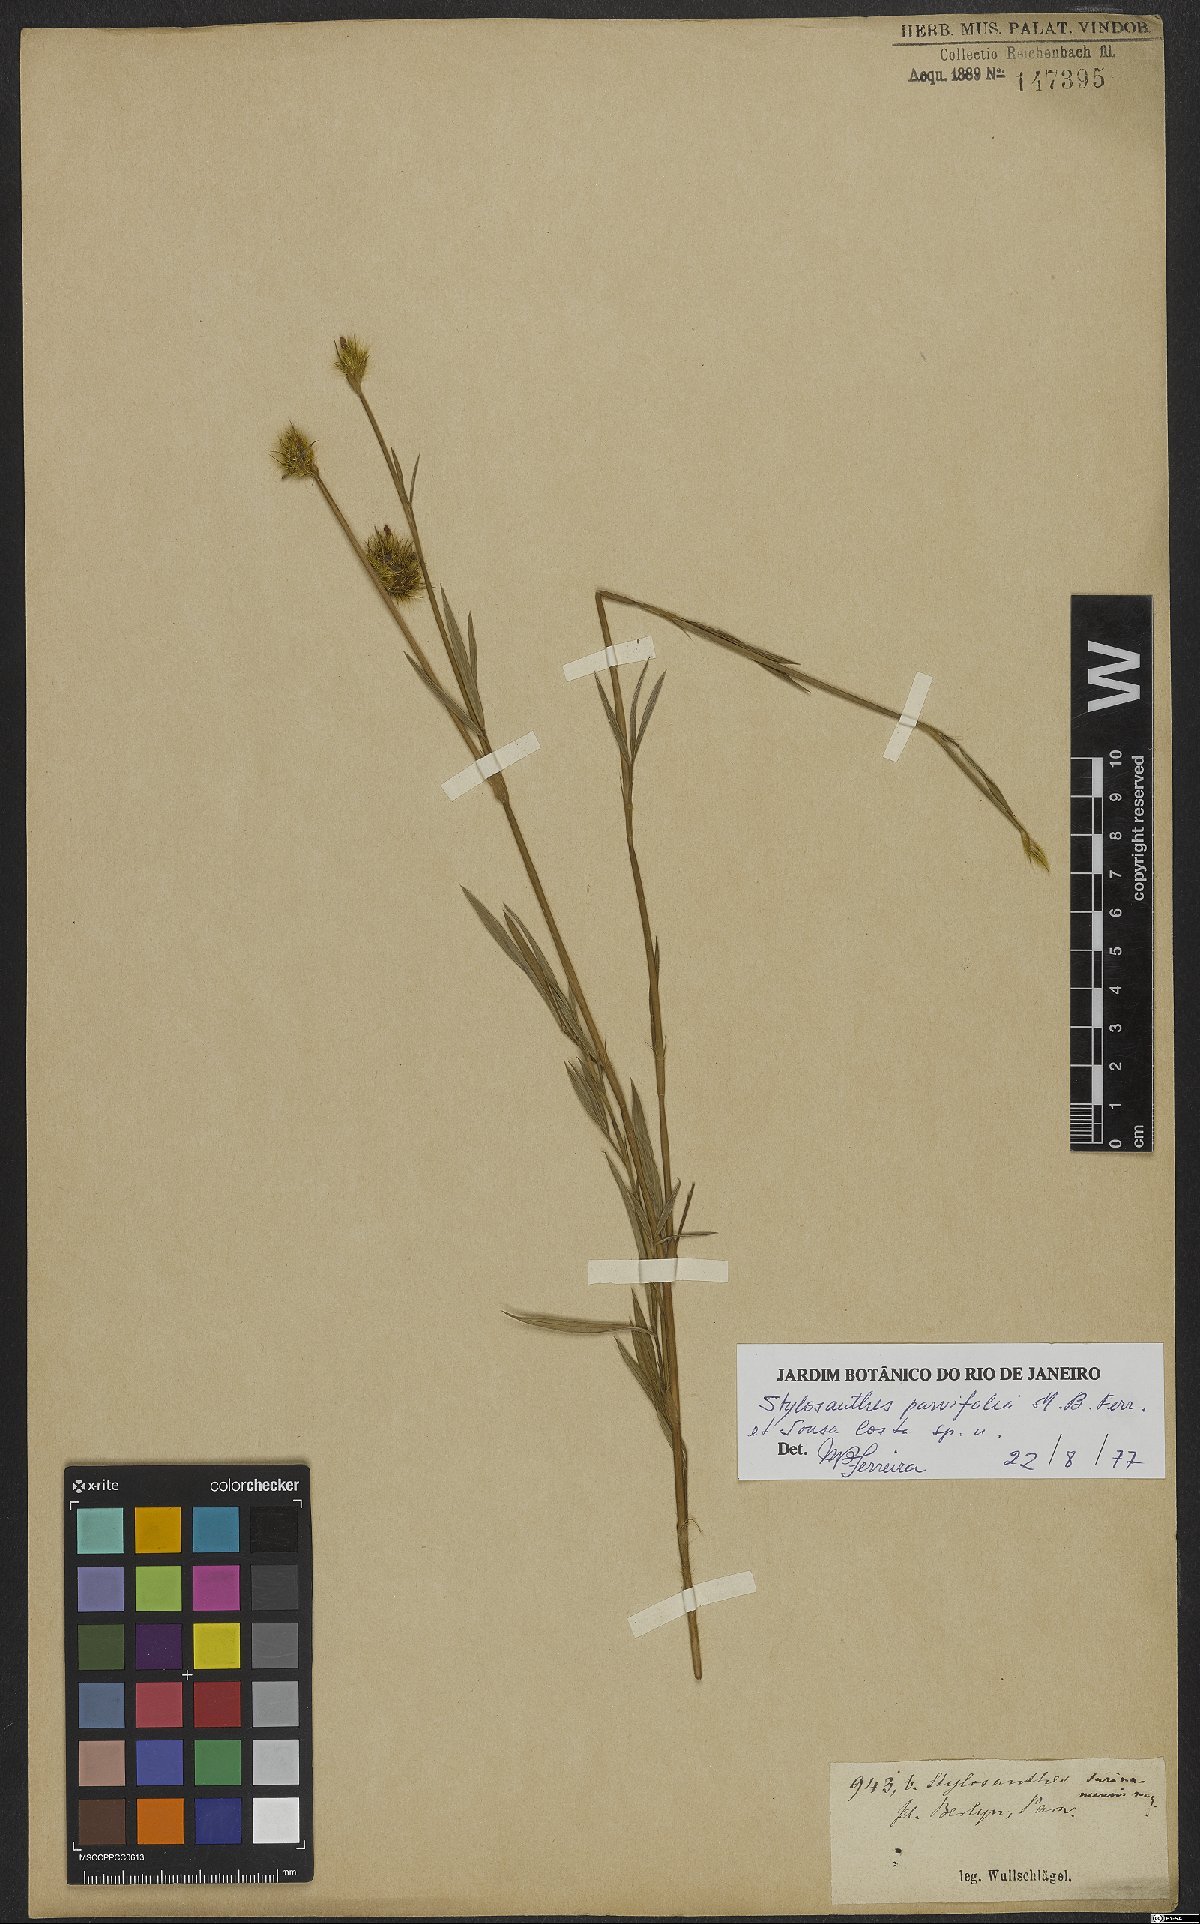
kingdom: Plantae
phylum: Tracheophyta
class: Magnoliopsida
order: Fabales
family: Fabaceae
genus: Stylosanthes
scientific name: Stylosanthes
